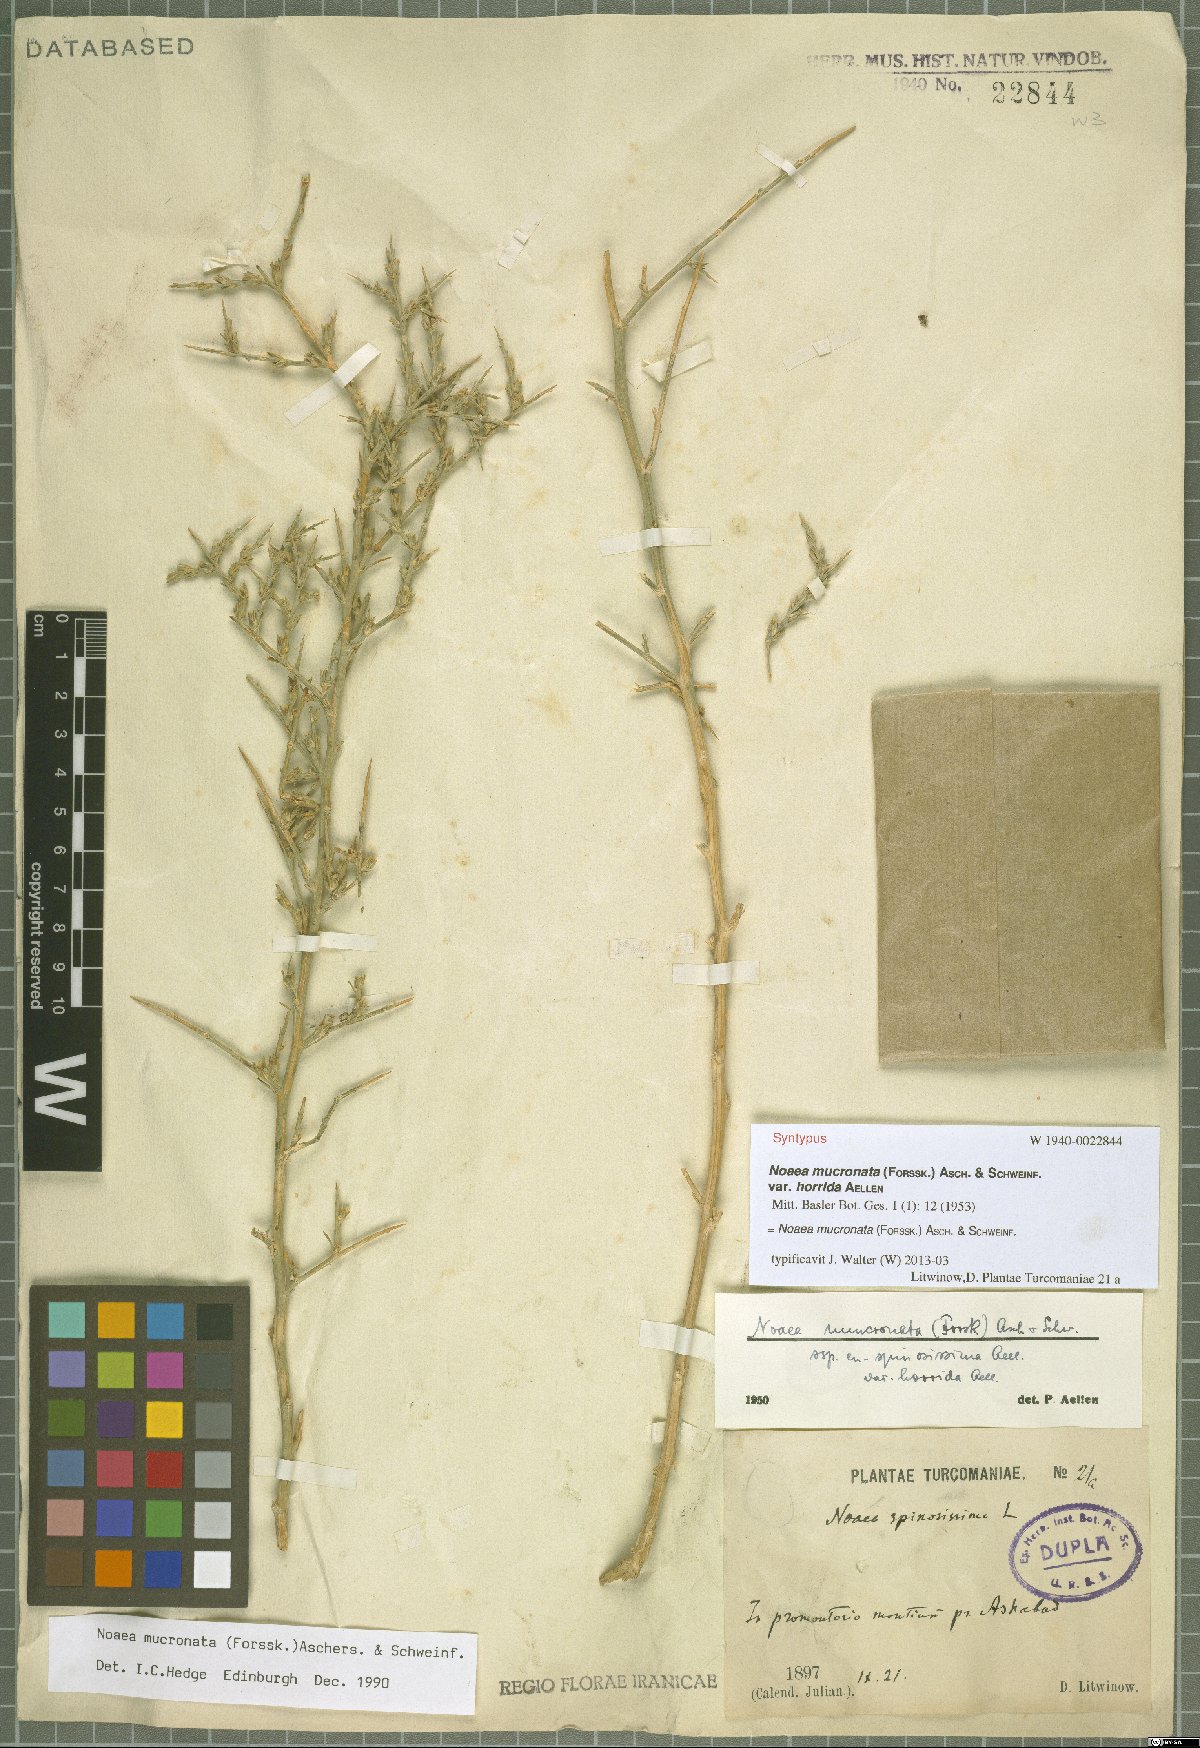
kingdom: Plantae
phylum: Tracheophyta
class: Magnoliopsida
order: Caryophyllales
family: Amaranthaceae
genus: Noaea
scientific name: Noaea mucronata
